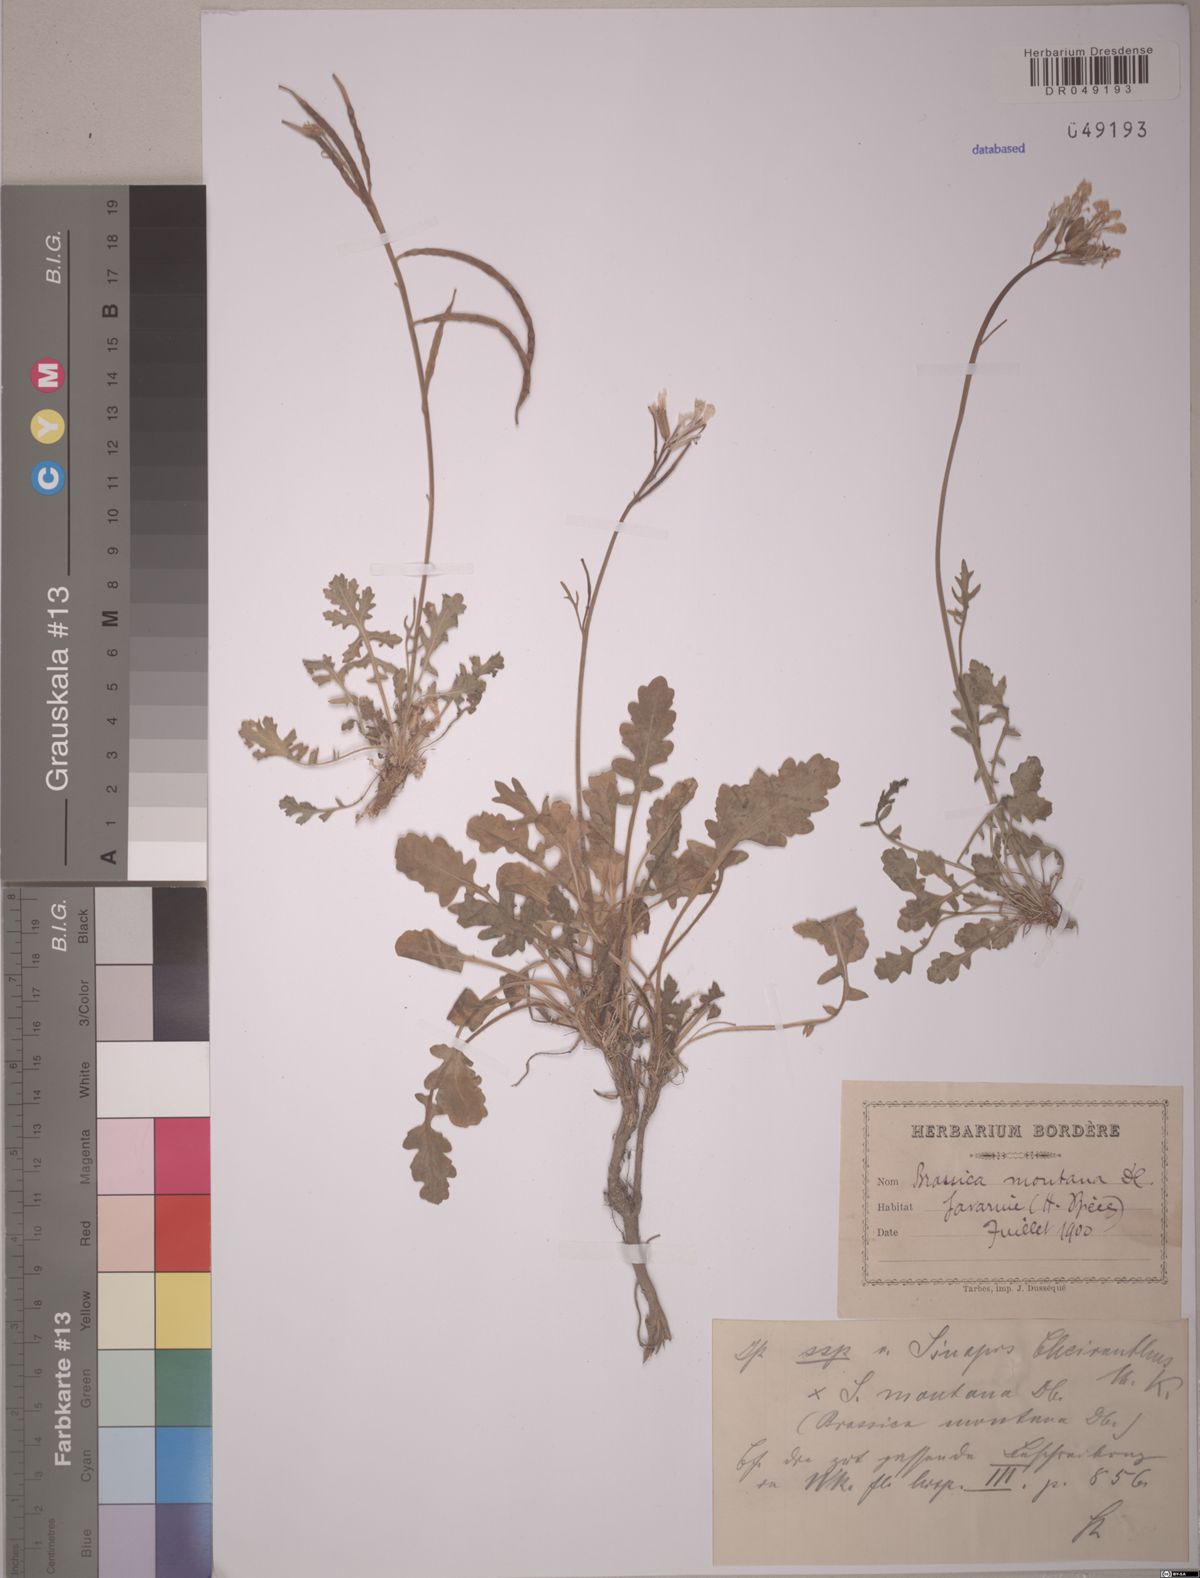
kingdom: Plantae
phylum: Tracheophyta
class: Magnoliopsida
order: Brassicales
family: Brassicaceae
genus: Brassica
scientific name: Brassica montana
